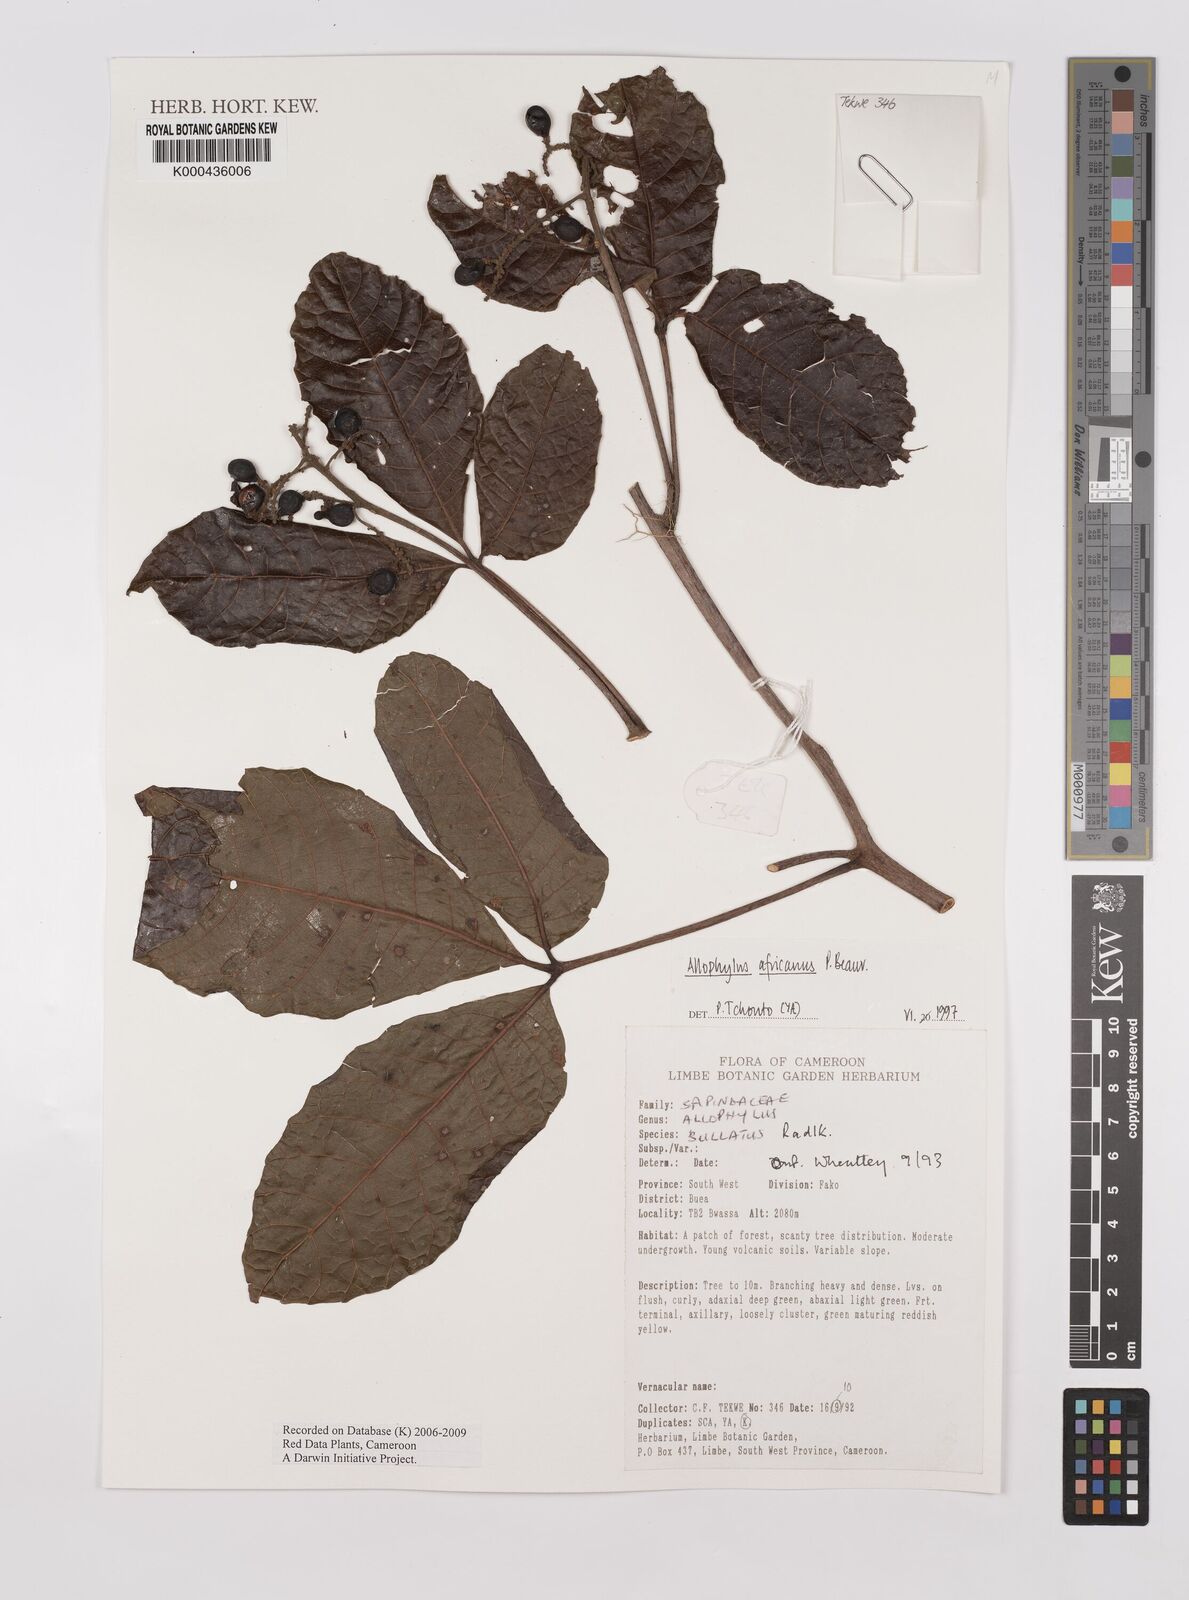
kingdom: Plantae
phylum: Tracheophyta
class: Magnoliopsida
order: Sapindales
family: Sapindaceae
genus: Allophylus
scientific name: Allophylus africanus
